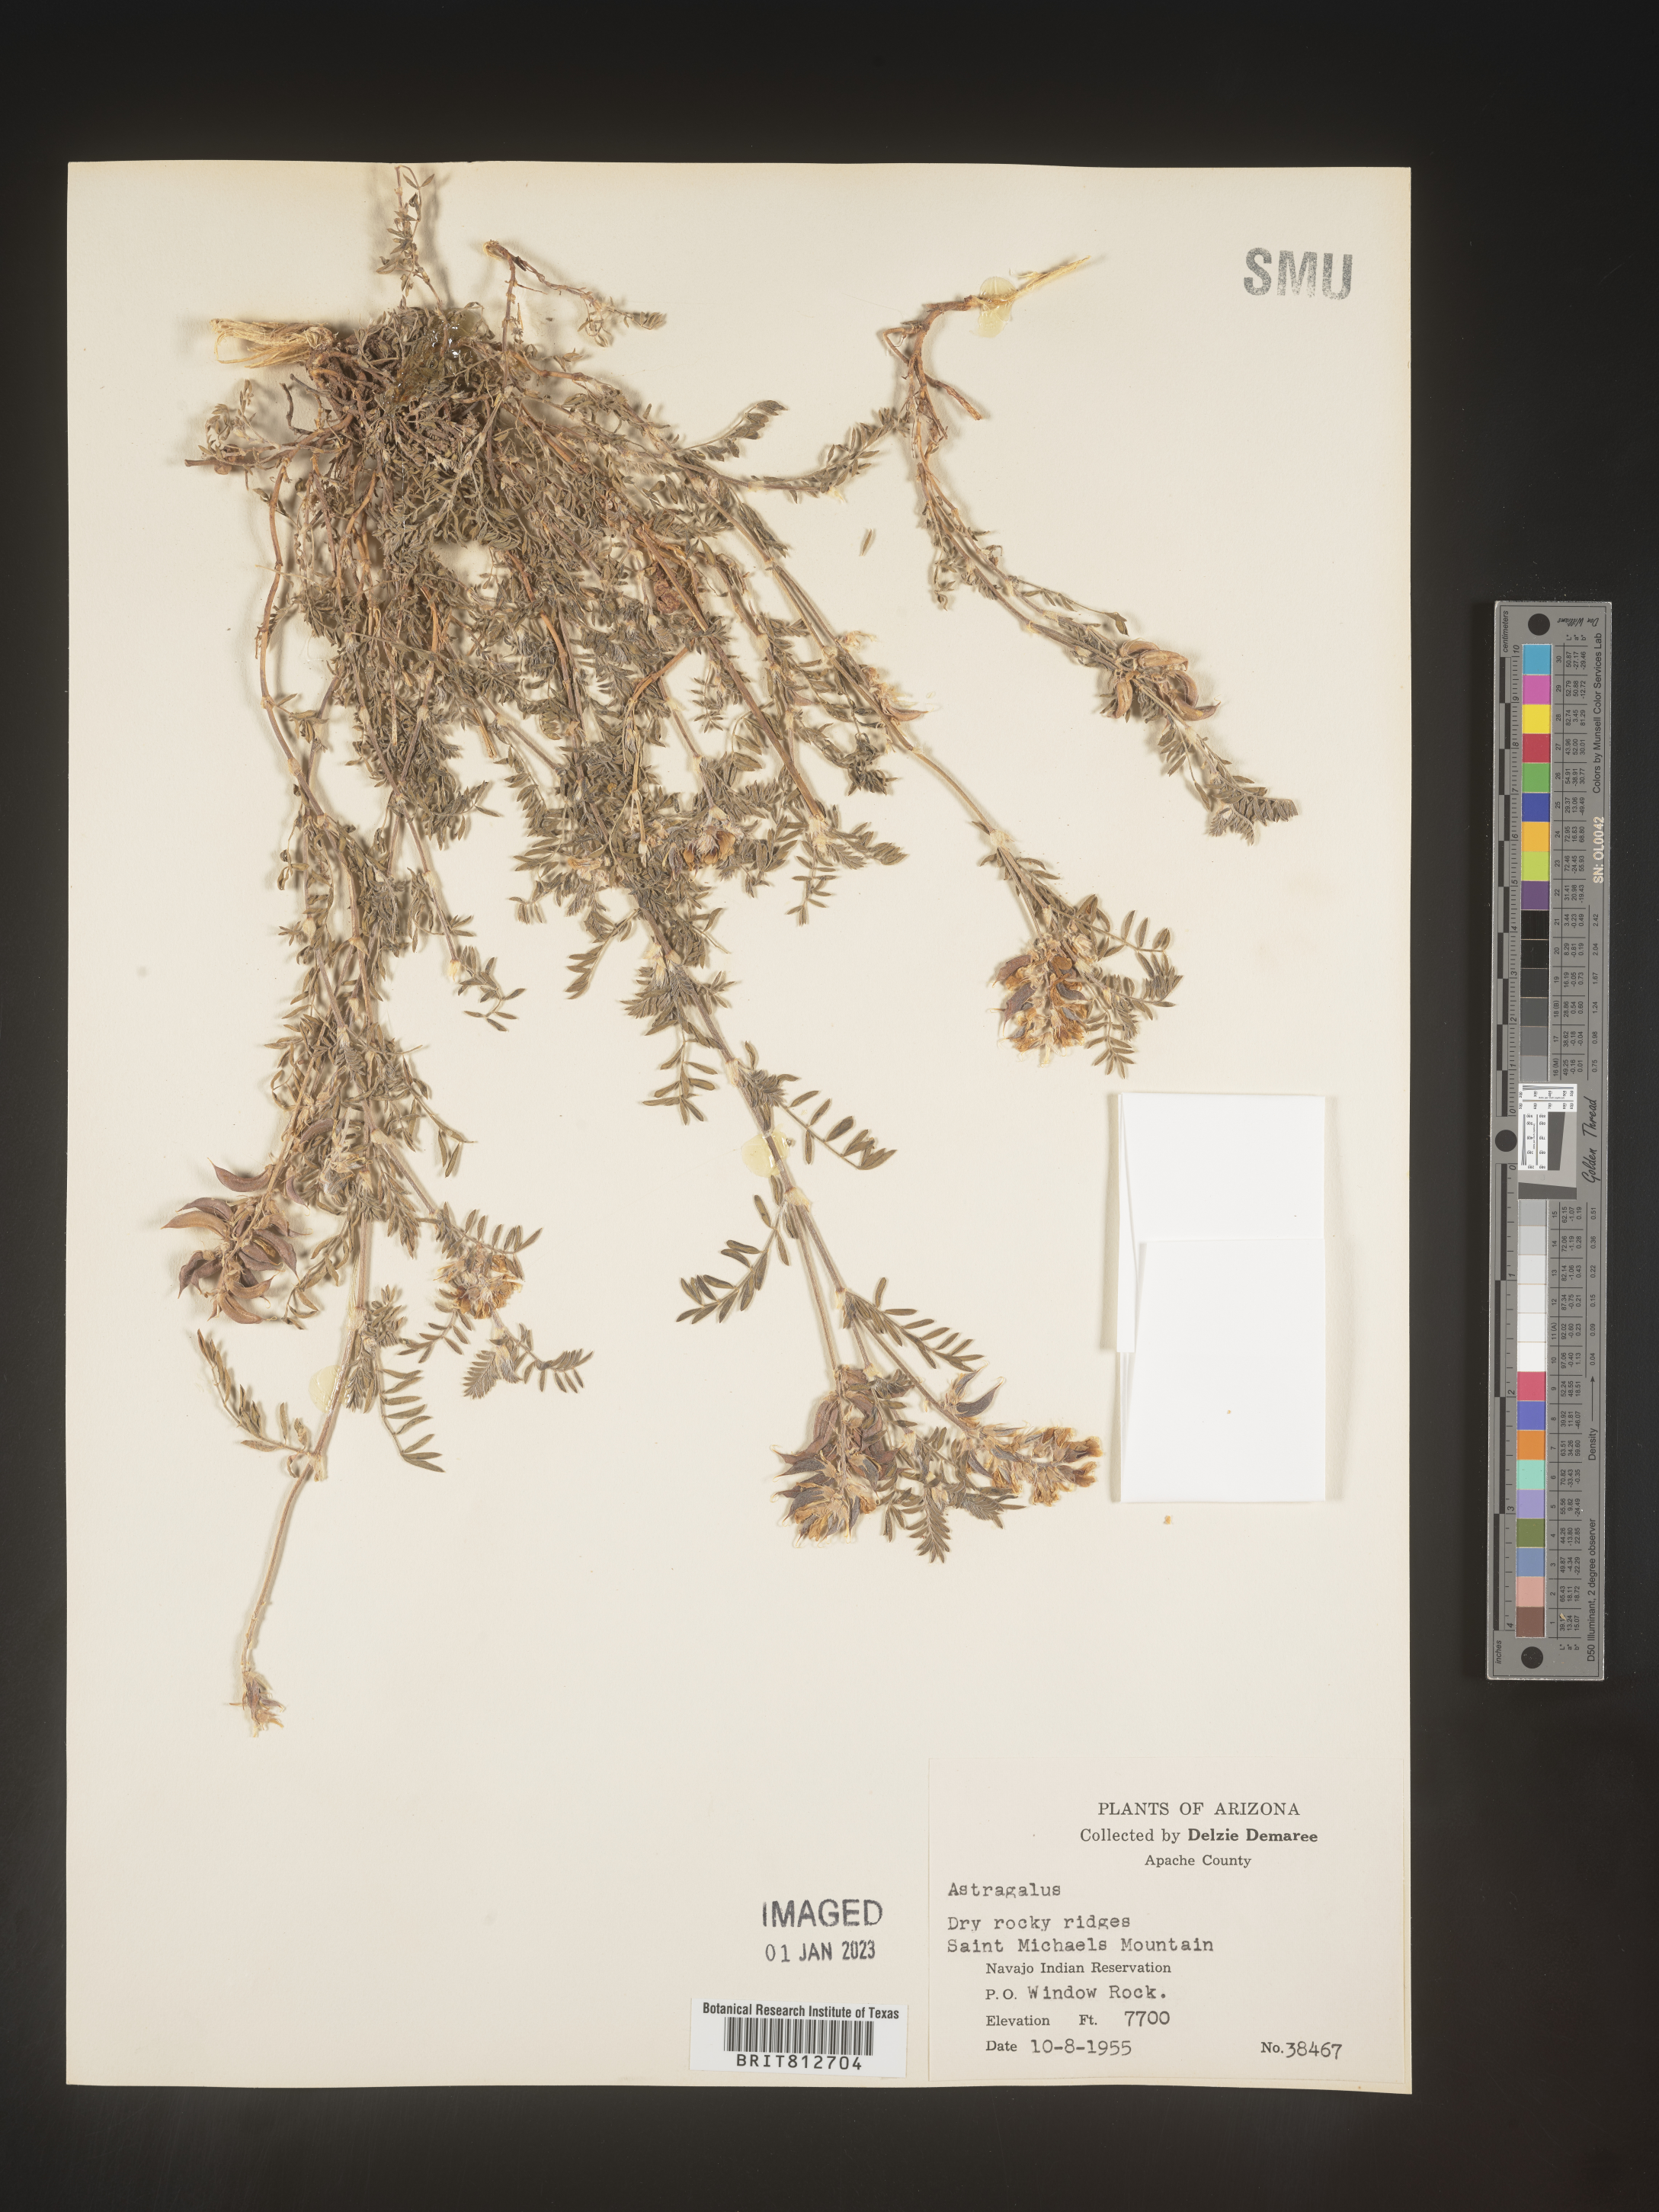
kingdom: Plantae
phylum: Tracheophyta
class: Magnoliopsida
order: Fabales
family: Fabaceae
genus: Astragalus
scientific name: Astragalus
